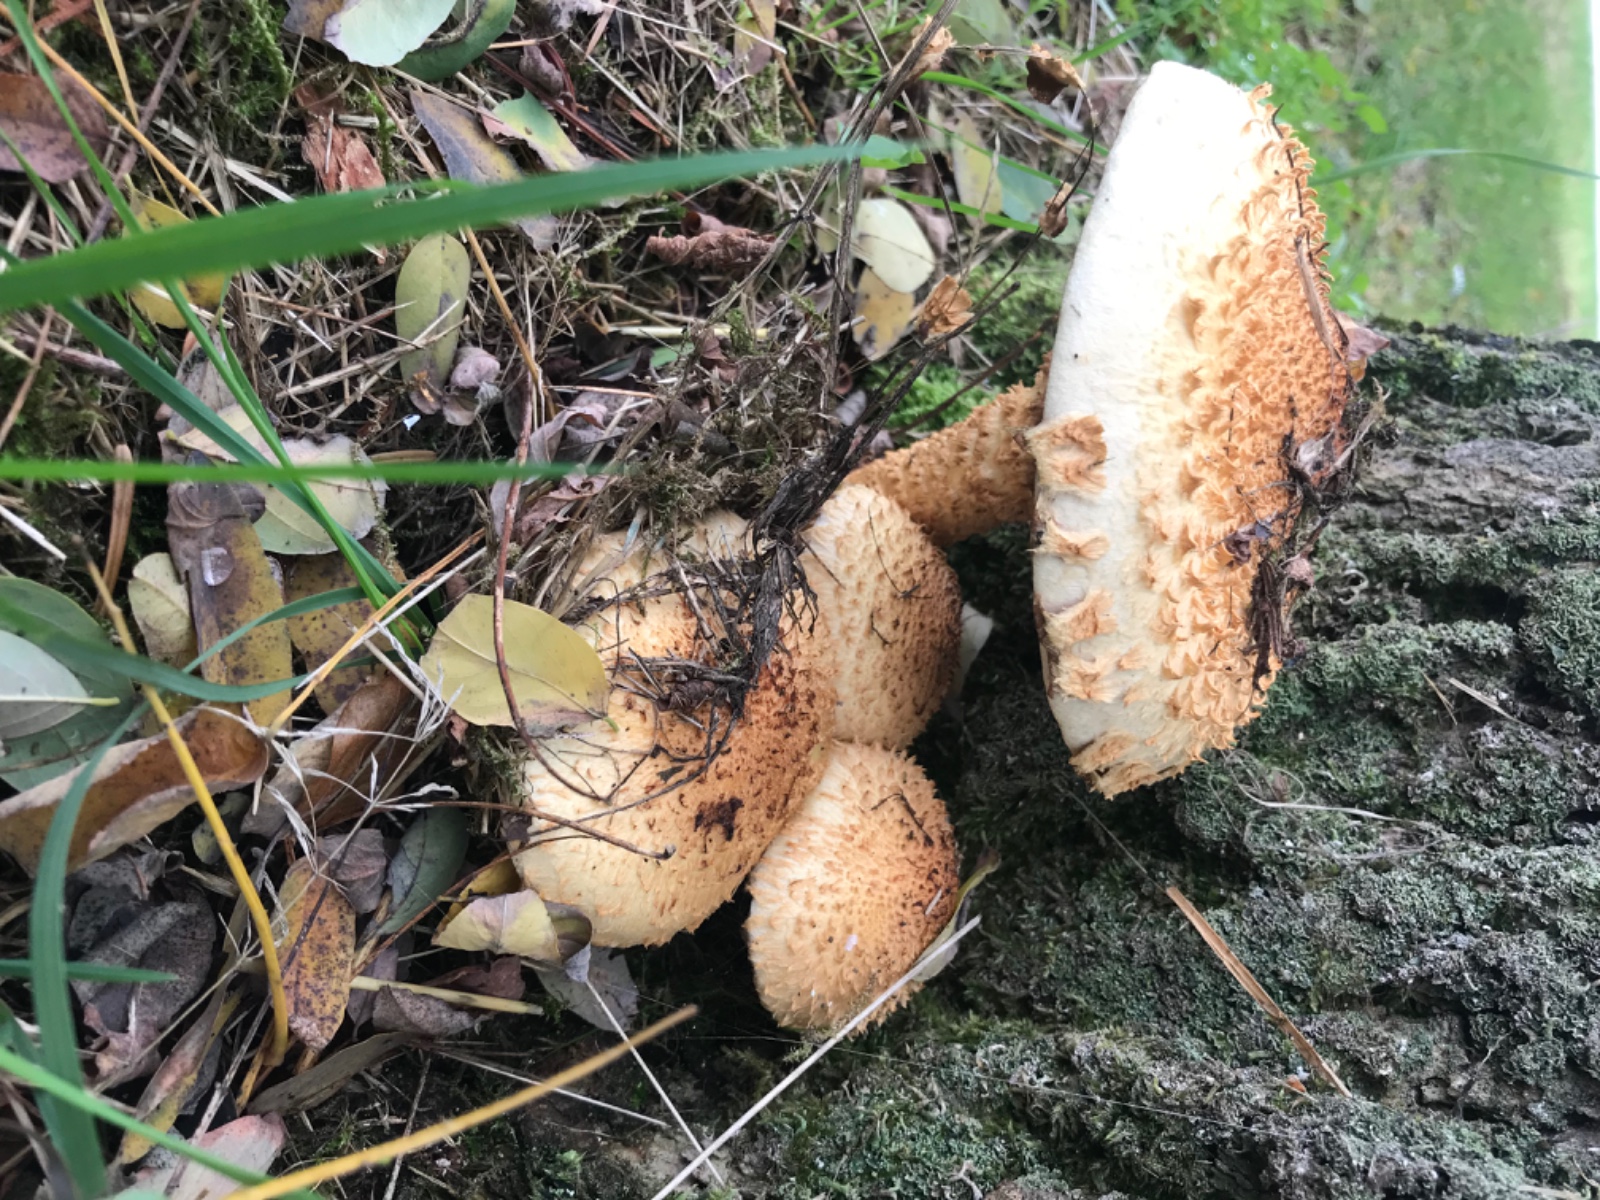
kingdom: Fungi
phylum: Basidiomycota
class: Agaricomycetes
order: Agaricales
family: Strophariaceae
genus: Pholiota
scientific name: Pholiota squarrosa
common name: krumskællet skælhat
